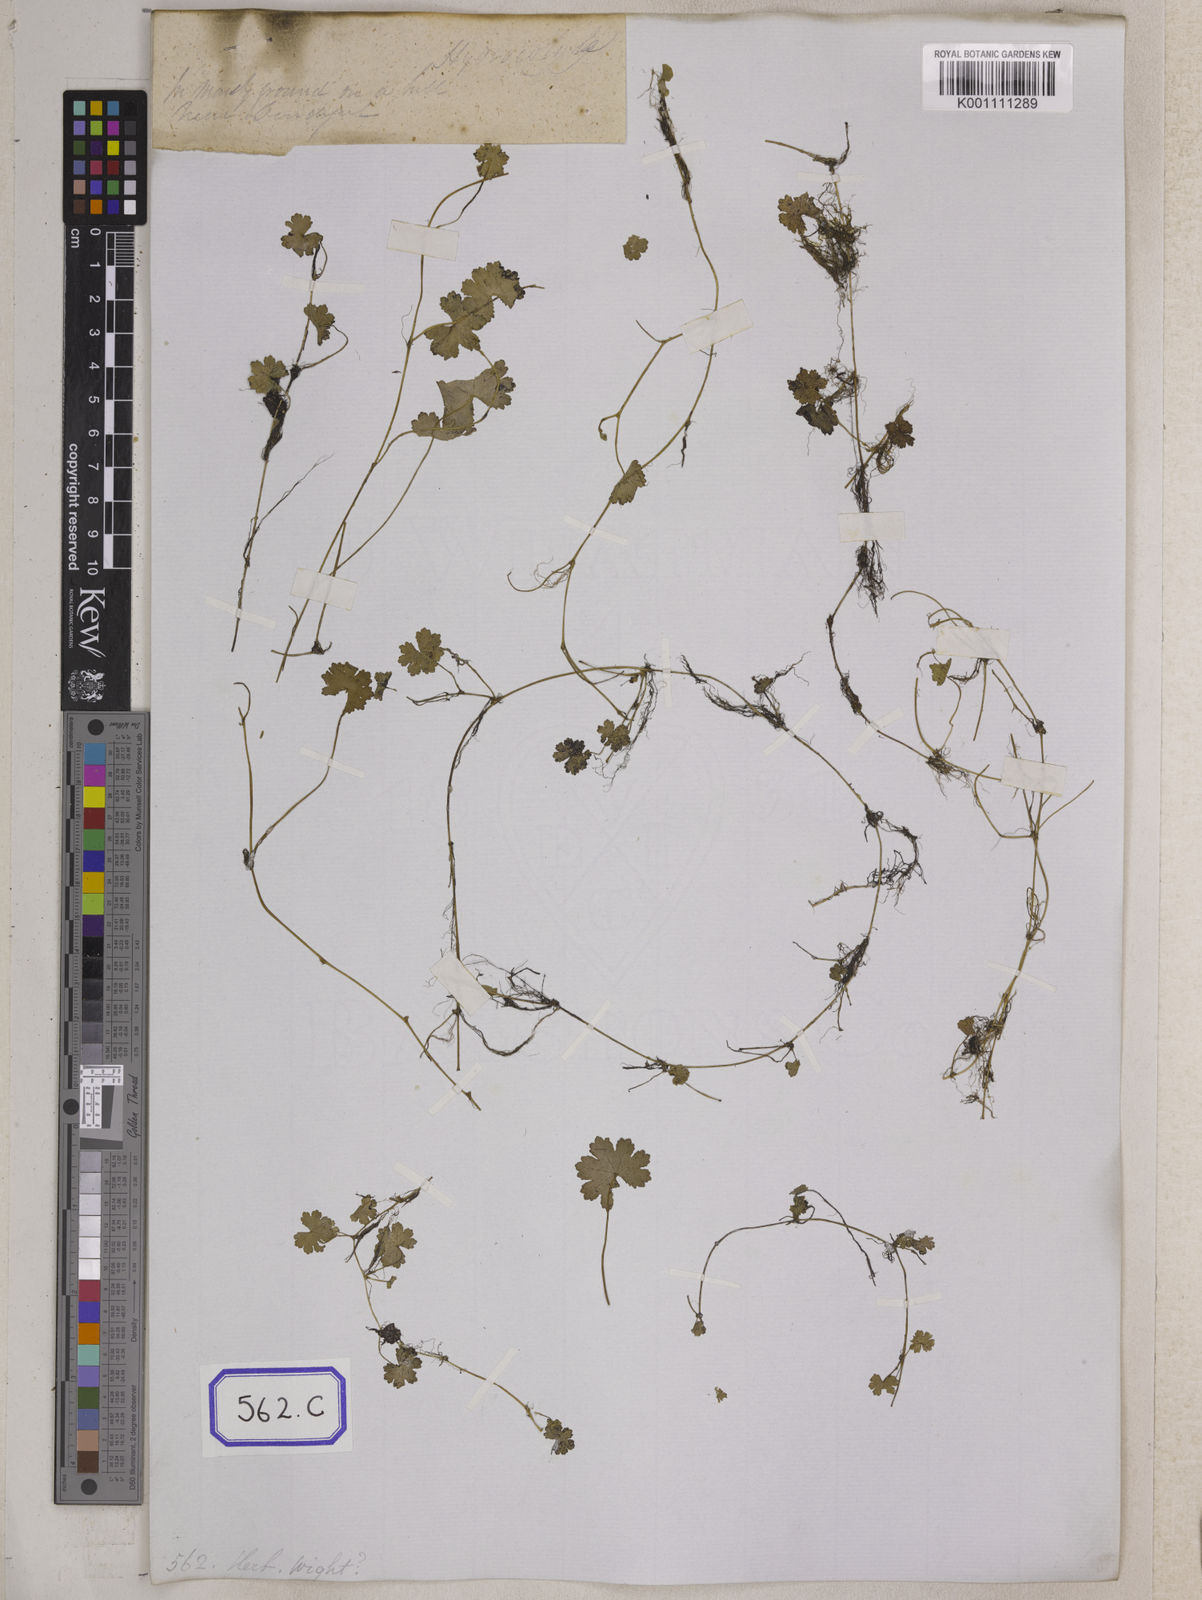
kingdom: Plantae
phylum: Tracheophyta
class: Magnoliopsida
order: Apiales
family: Araliaceae
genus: Hydrocotyle
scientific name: Hydrocotyle
